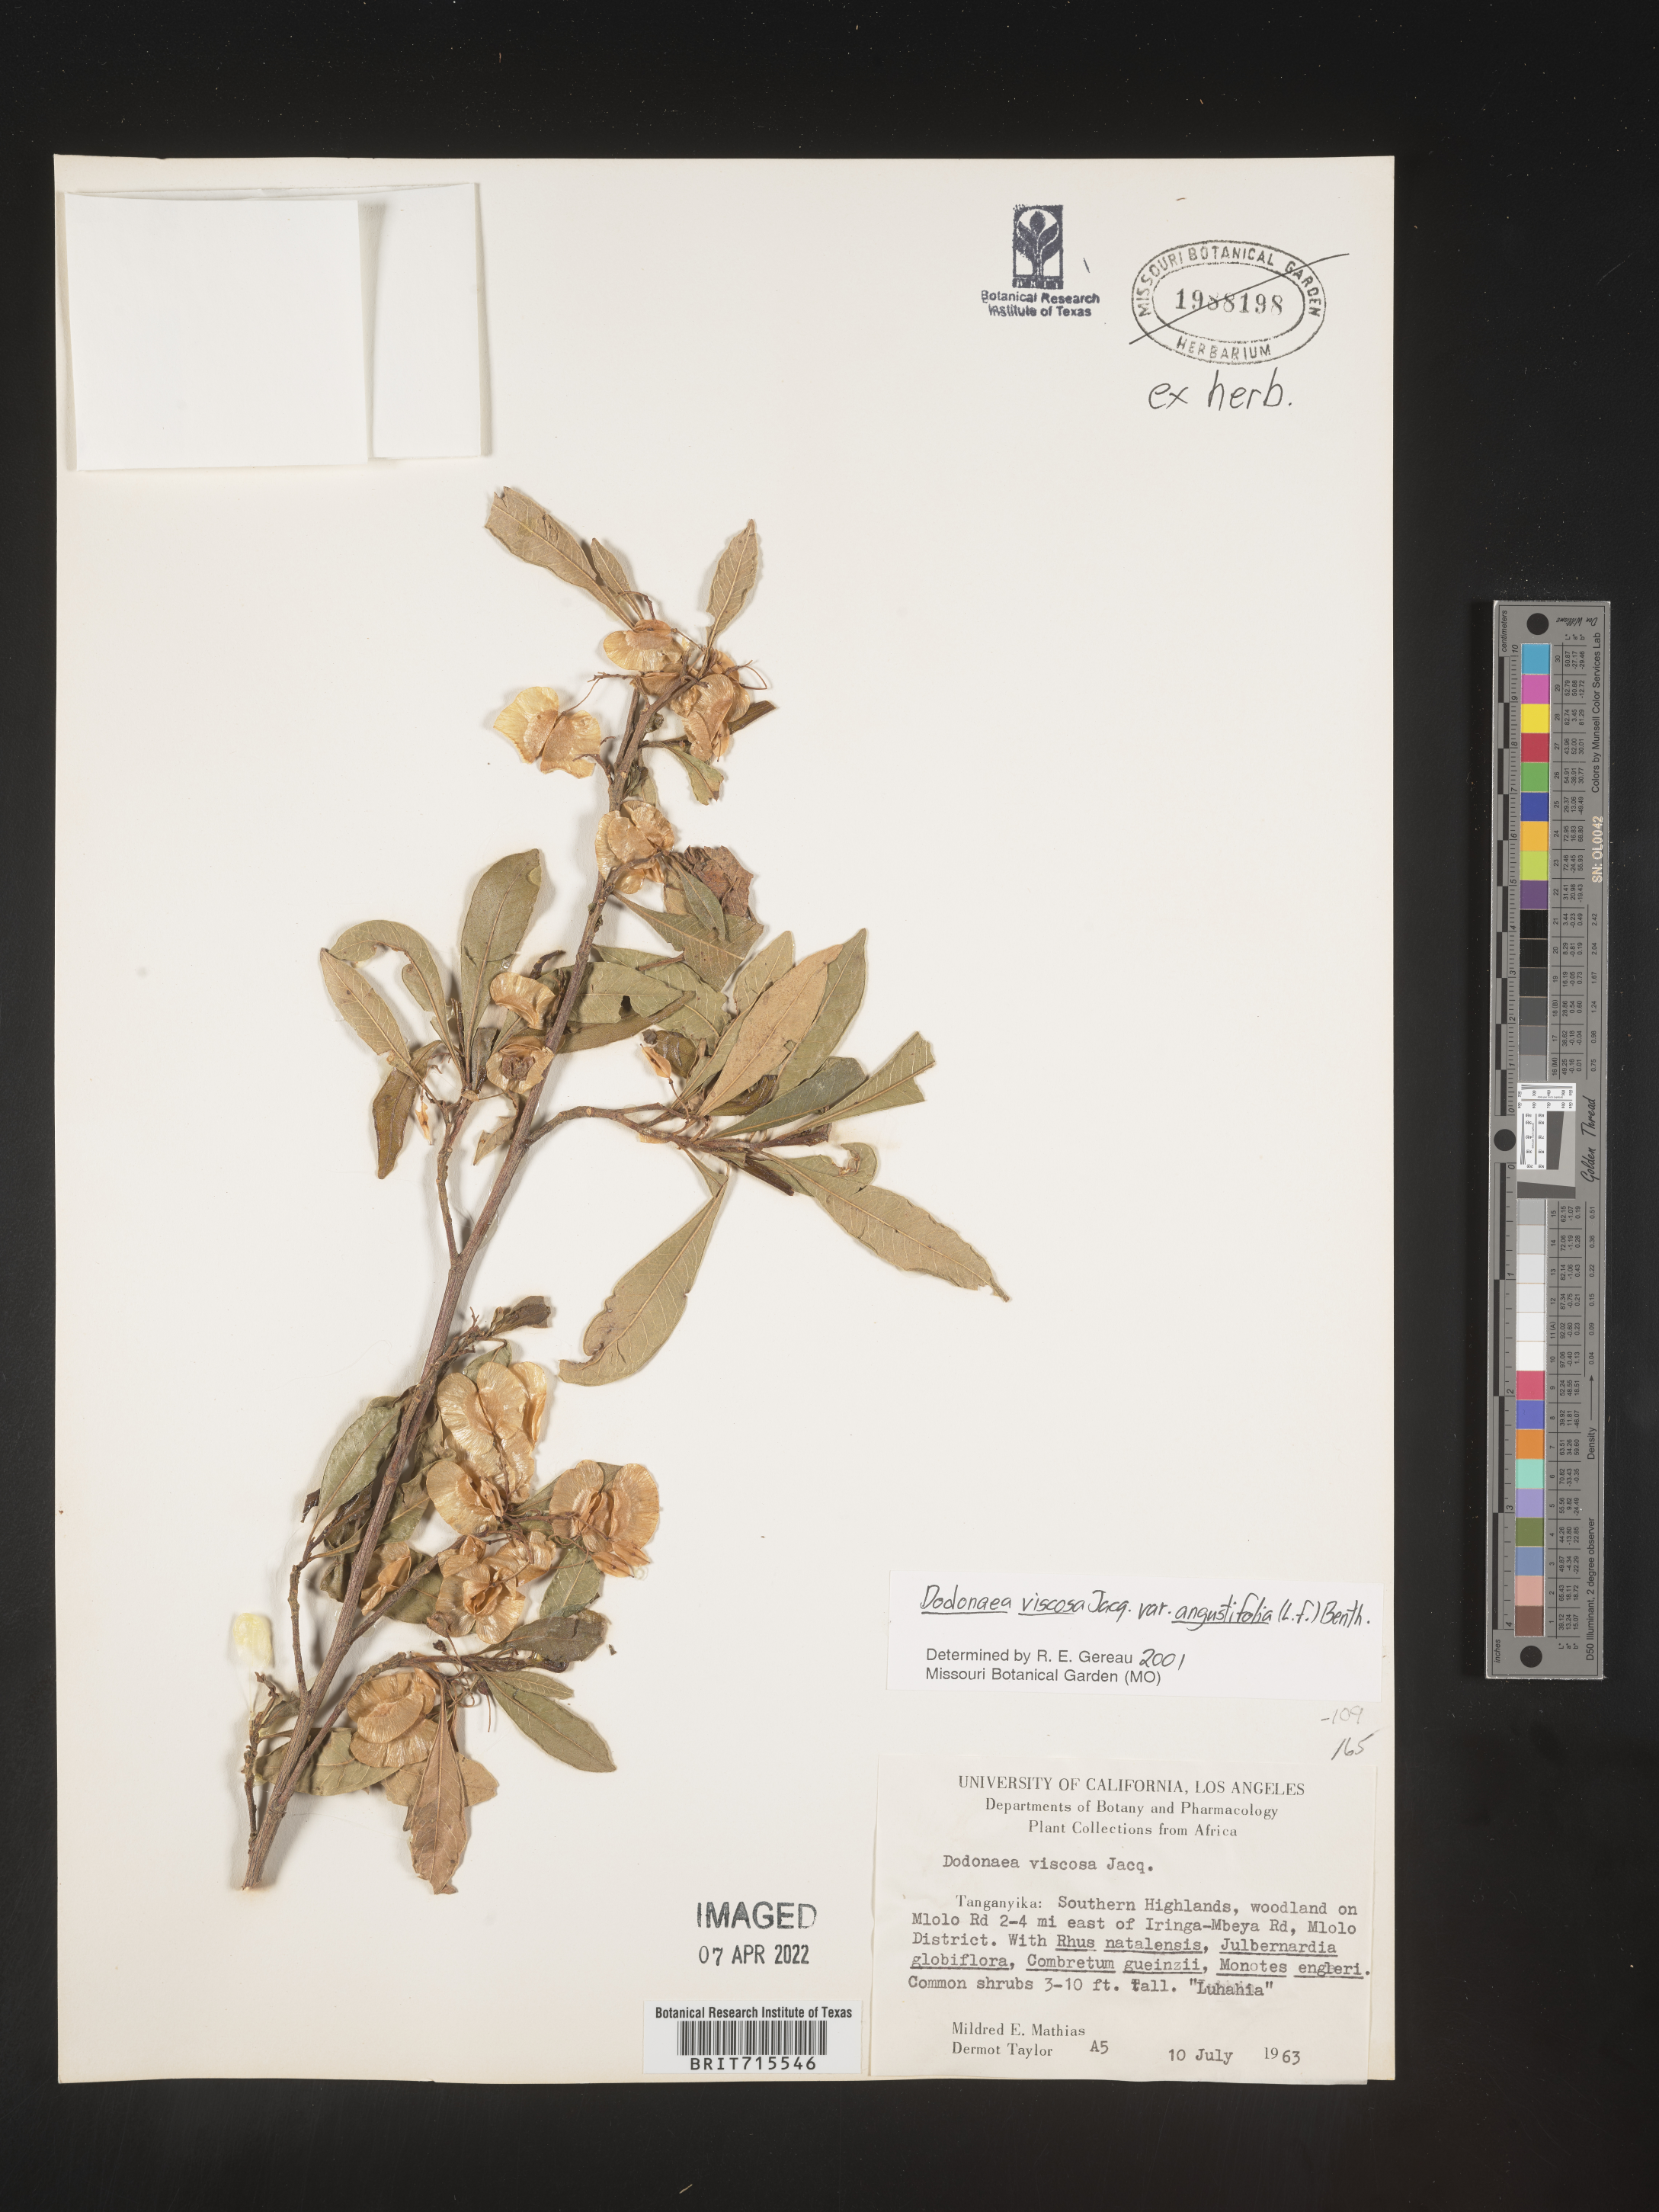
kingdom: Plantae
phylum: Tracheophyta
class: Magnoliopsida
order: Sapindales
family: Sapindaceae
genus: Dodonaea
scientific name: Dodonaea viscosa
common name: Hopbush
